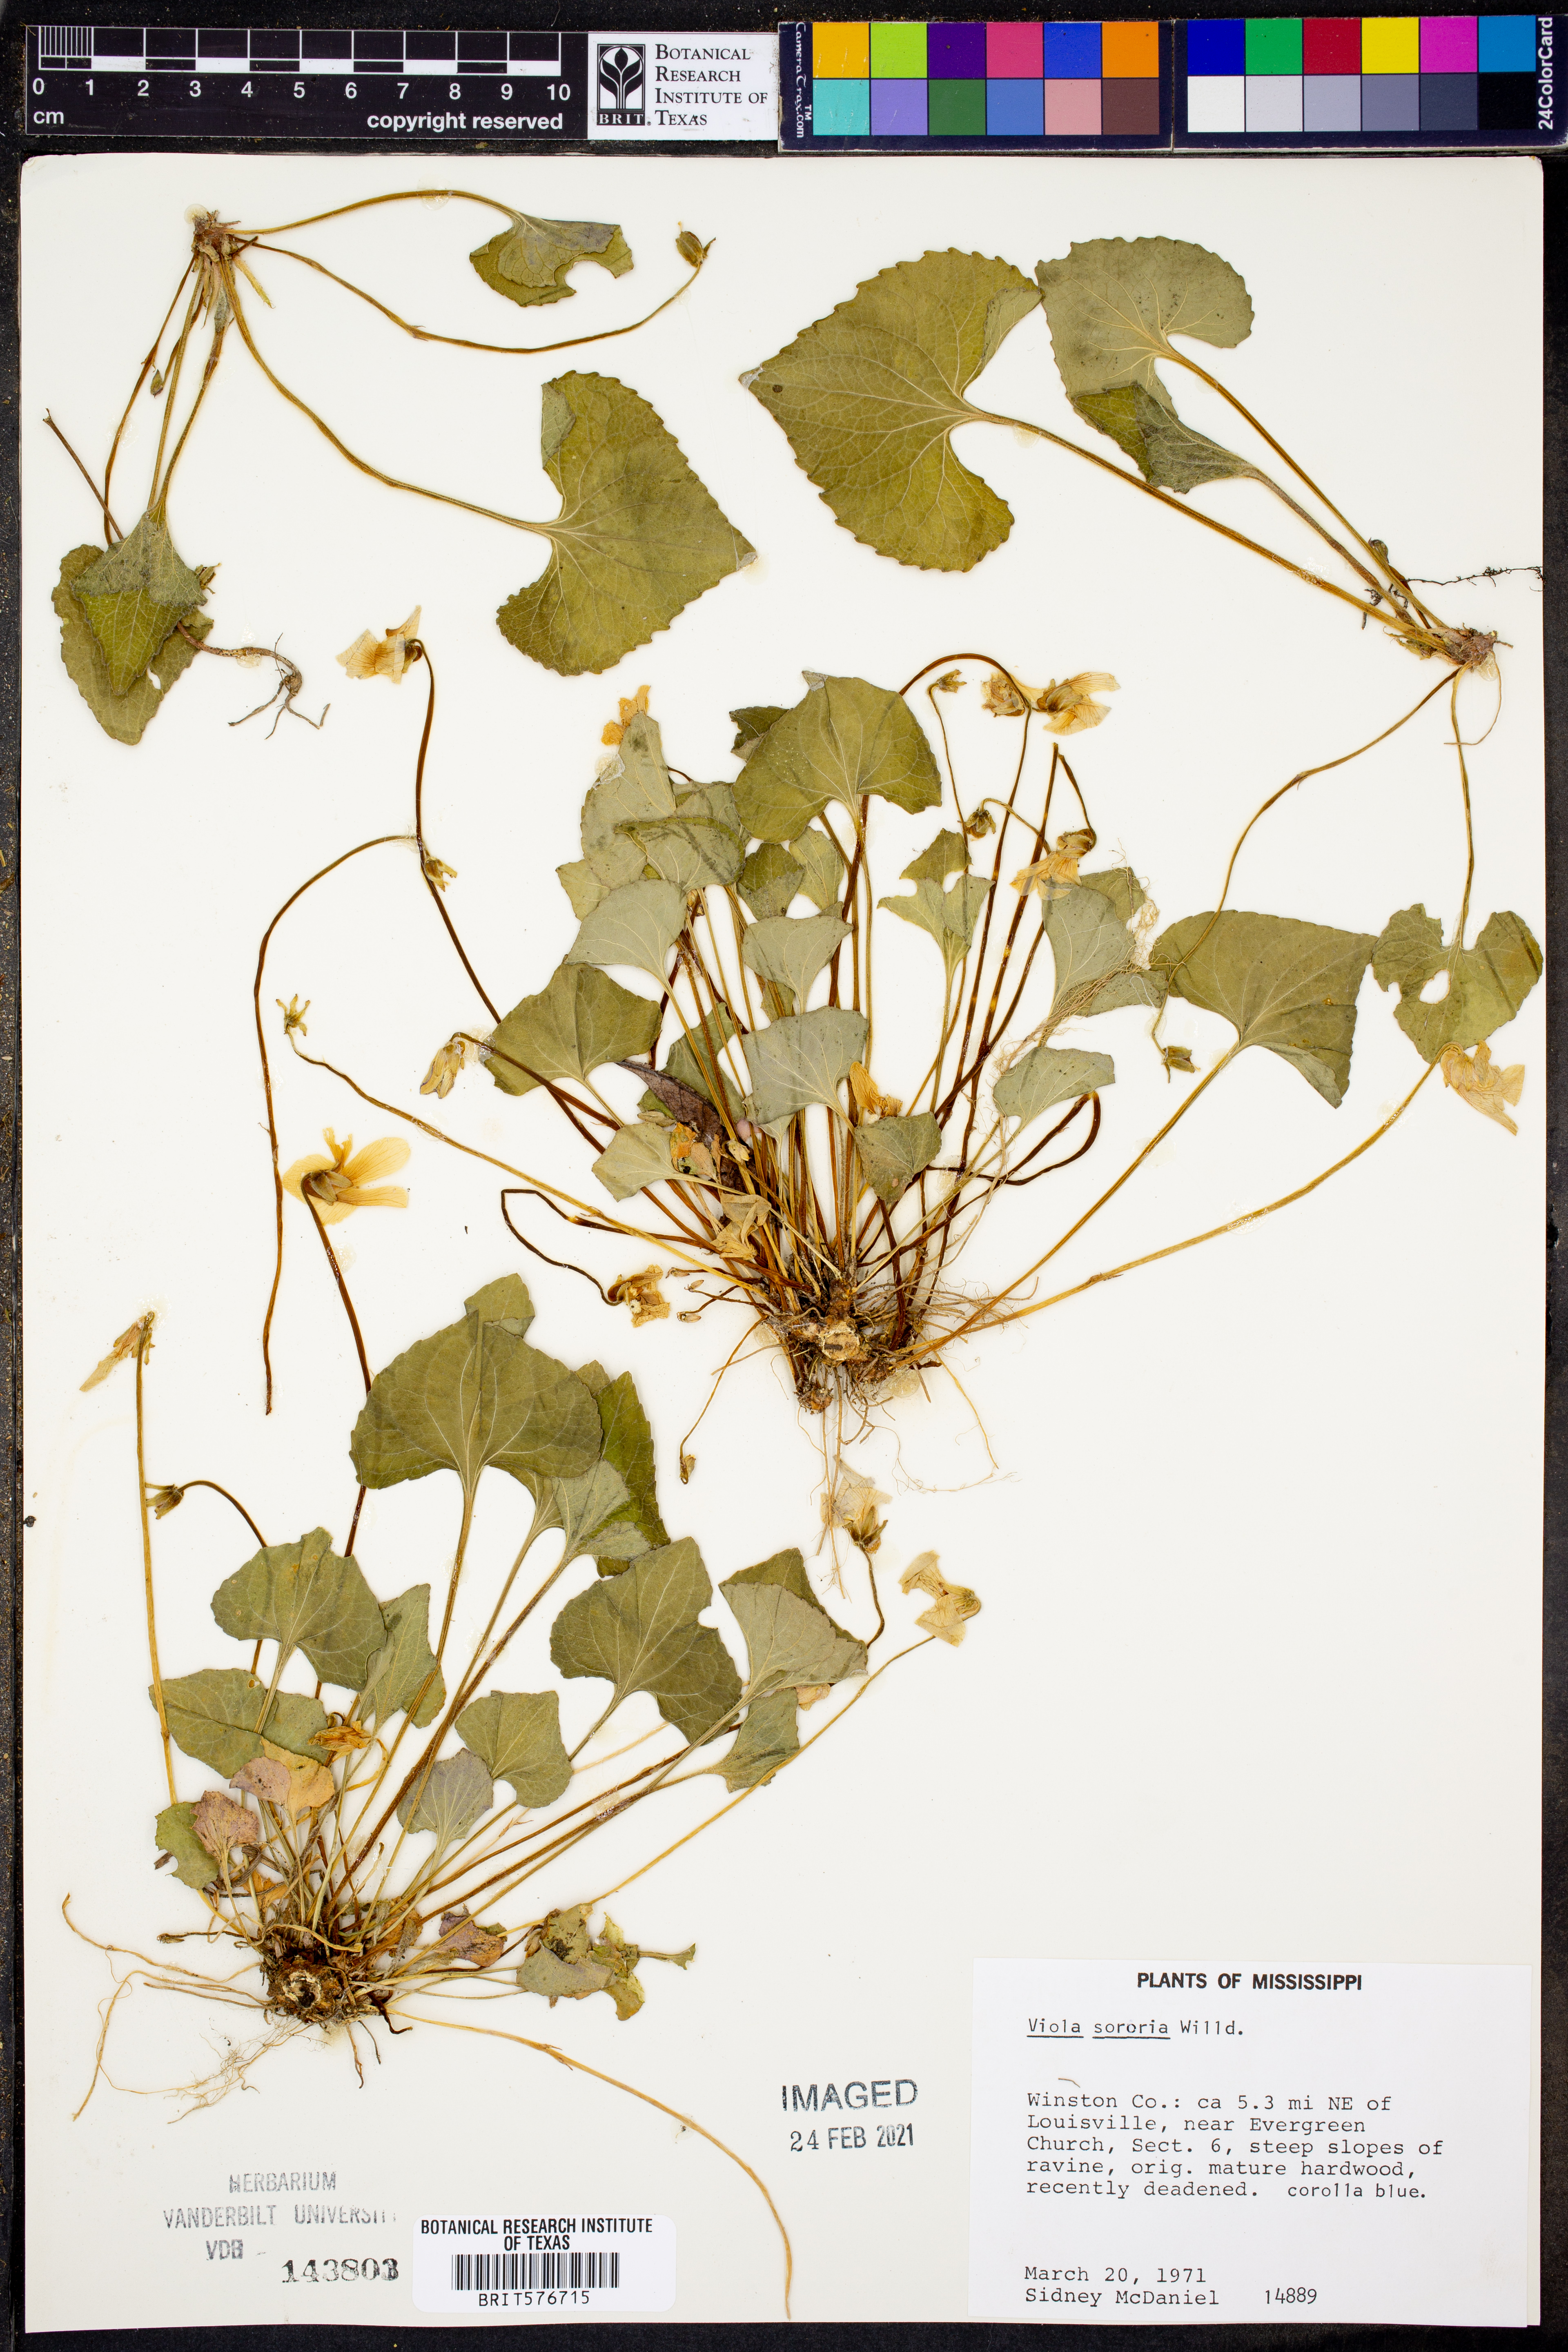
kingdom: Plantae
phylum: Tracheophyta
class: Magnoliopsida
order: Malpighiales
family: Violaceae
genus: Viola
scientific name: Viola sororia
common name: Dooryard violet
